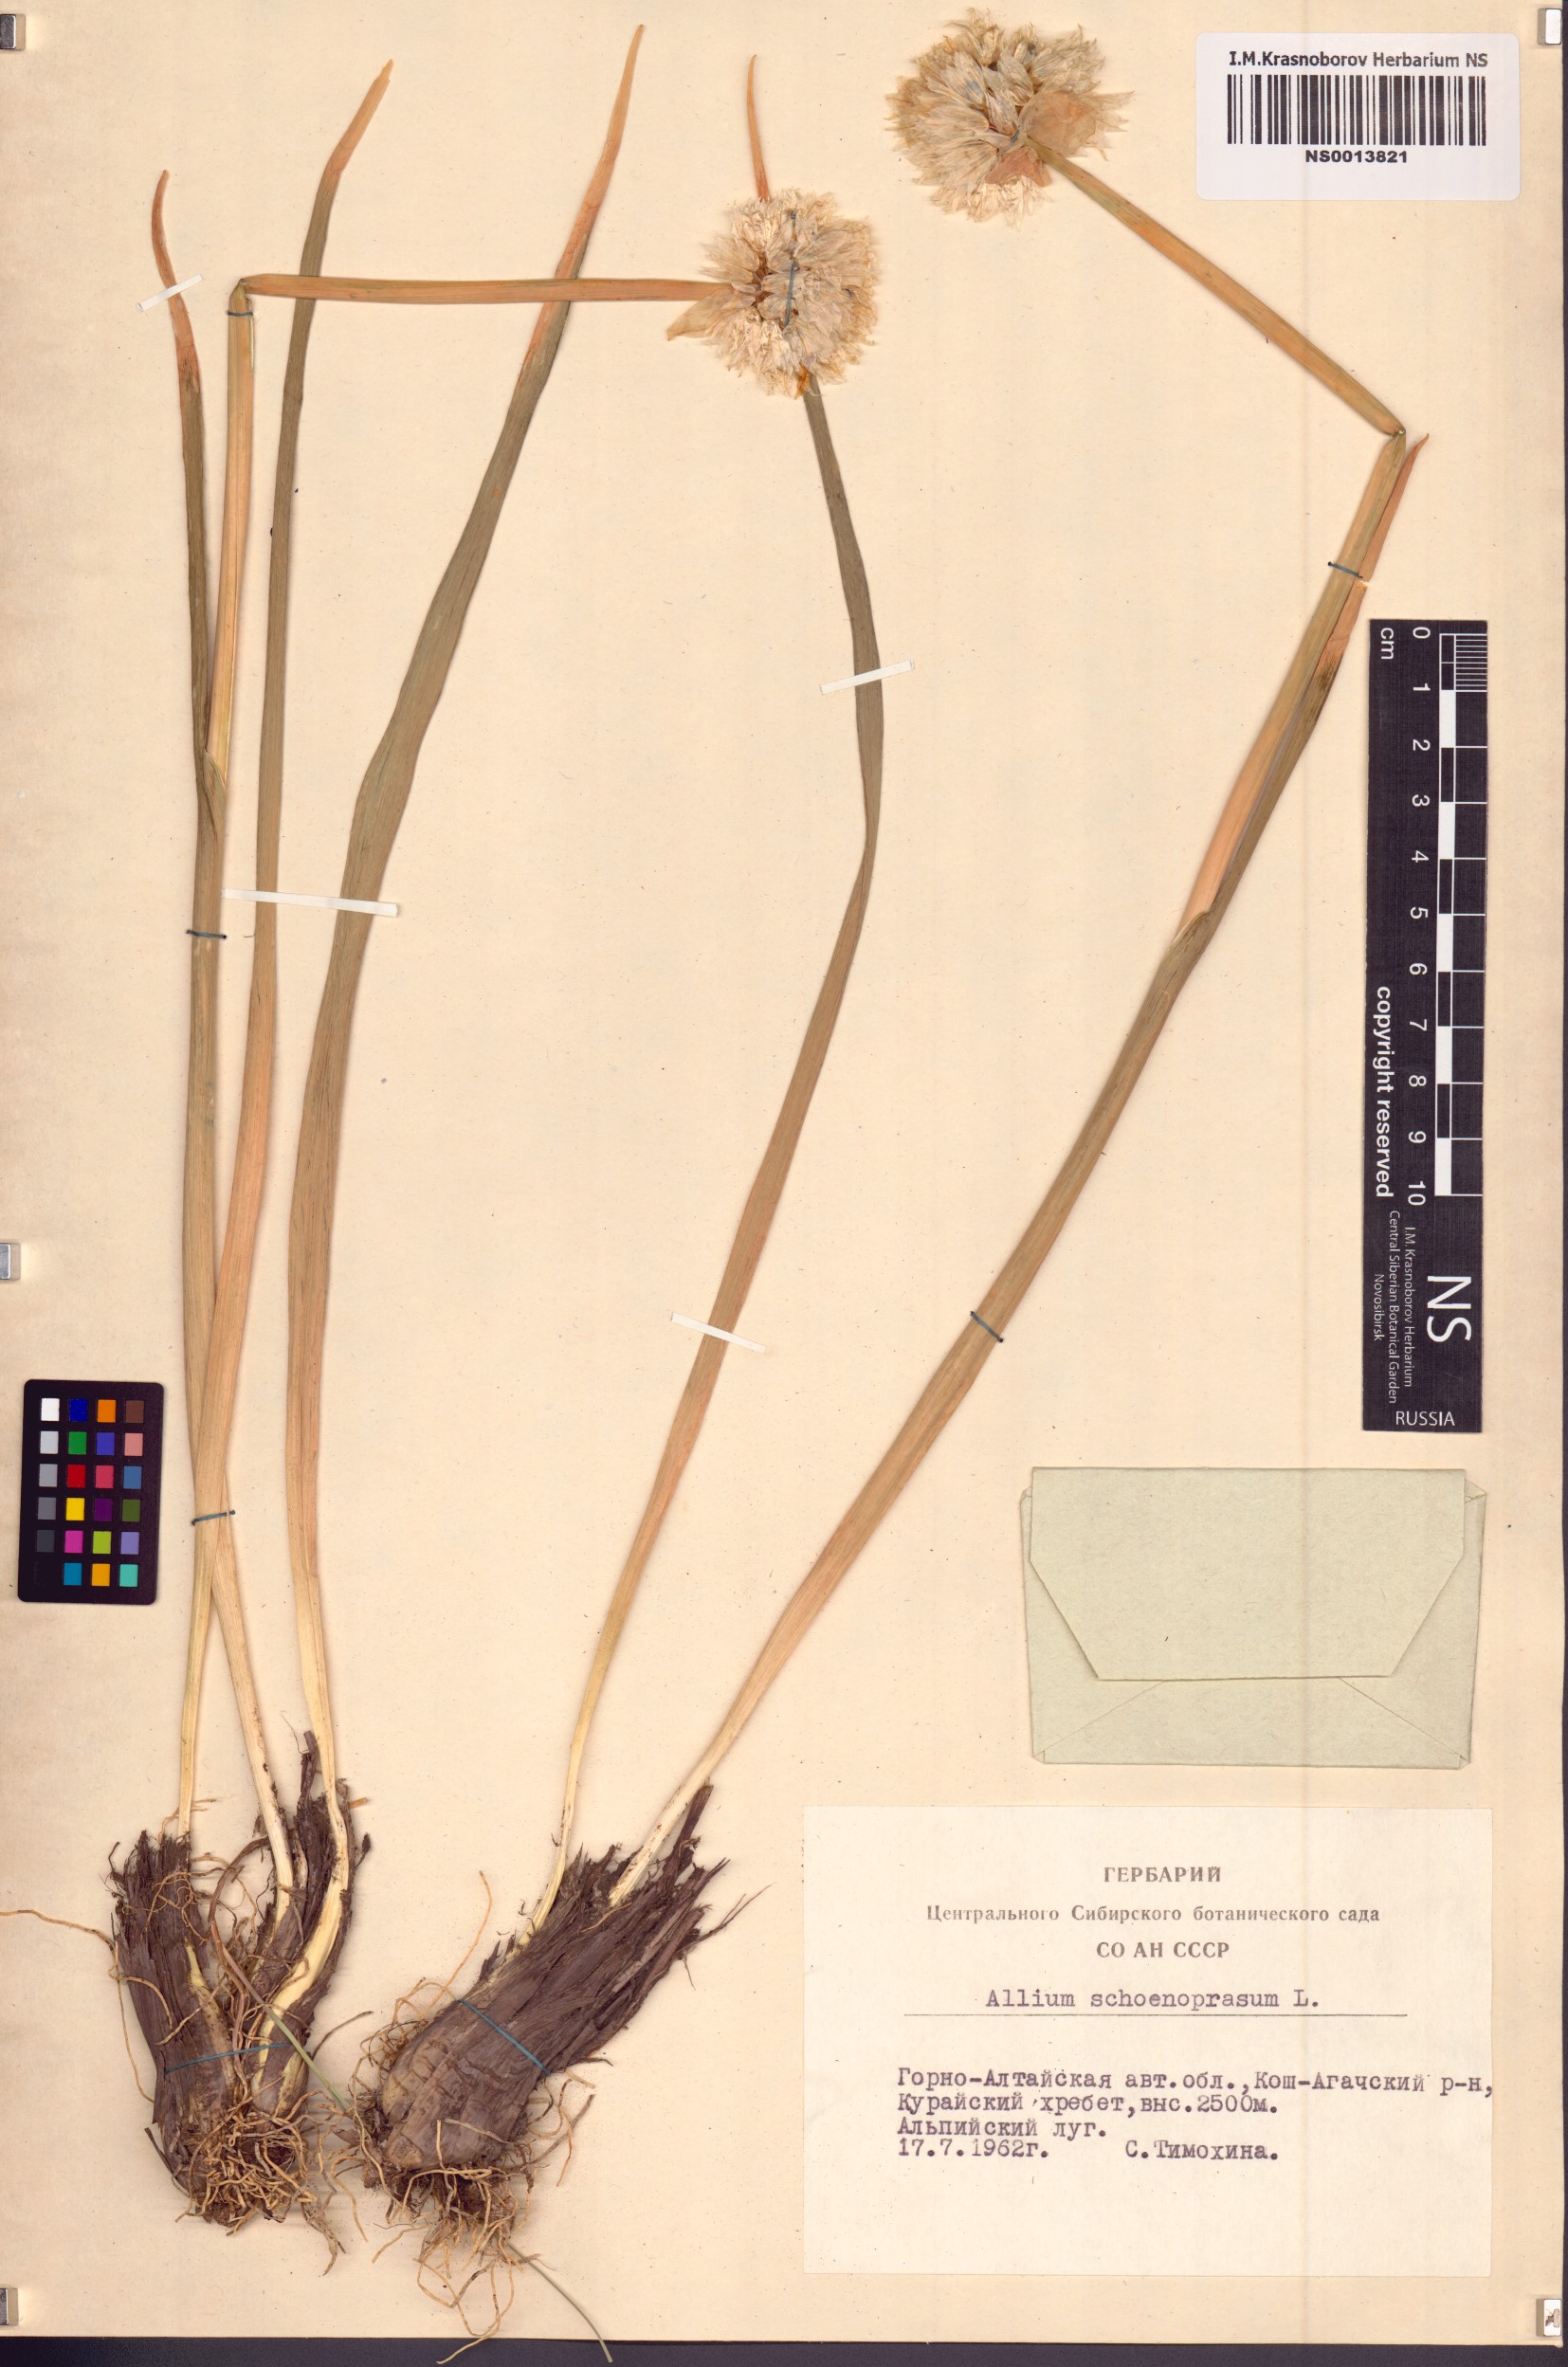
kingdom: Plantae
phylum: Tracheophyta
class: Liliopsida
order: Asparagales
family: Amaryllidaceae
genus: Allium
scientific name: Allium schoenoprasum
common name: Chives
